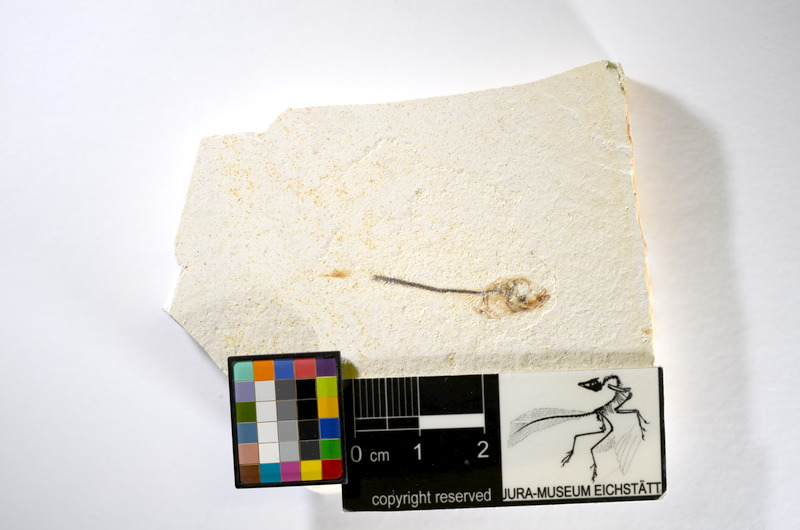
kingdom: Animalia
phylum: Chordata
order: Salmoniformes
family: Orthogonikleithridae
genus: Orthogonikleithrus
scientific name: Orthogonikleithrus hoelli
